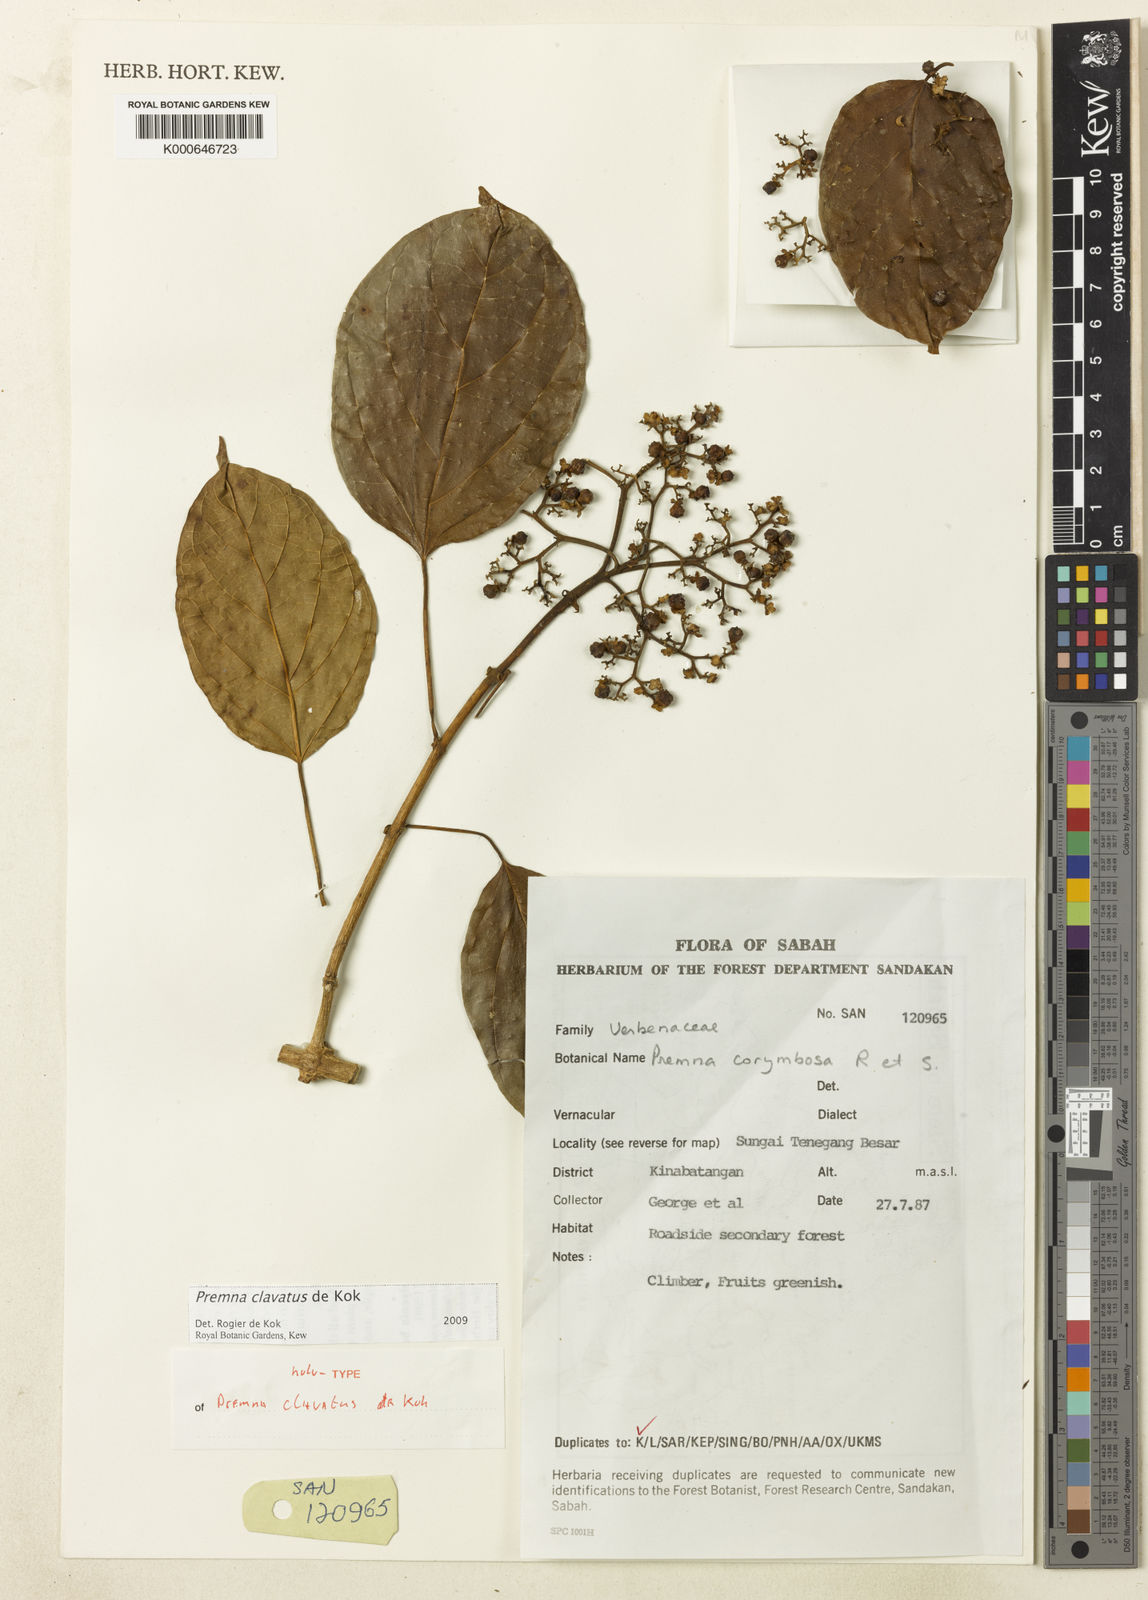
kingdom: Plantae
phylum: Tracheophyta
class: Magnoliopsida
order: Lamiales
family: Lamiaceae
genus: Premna
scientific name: Premna
